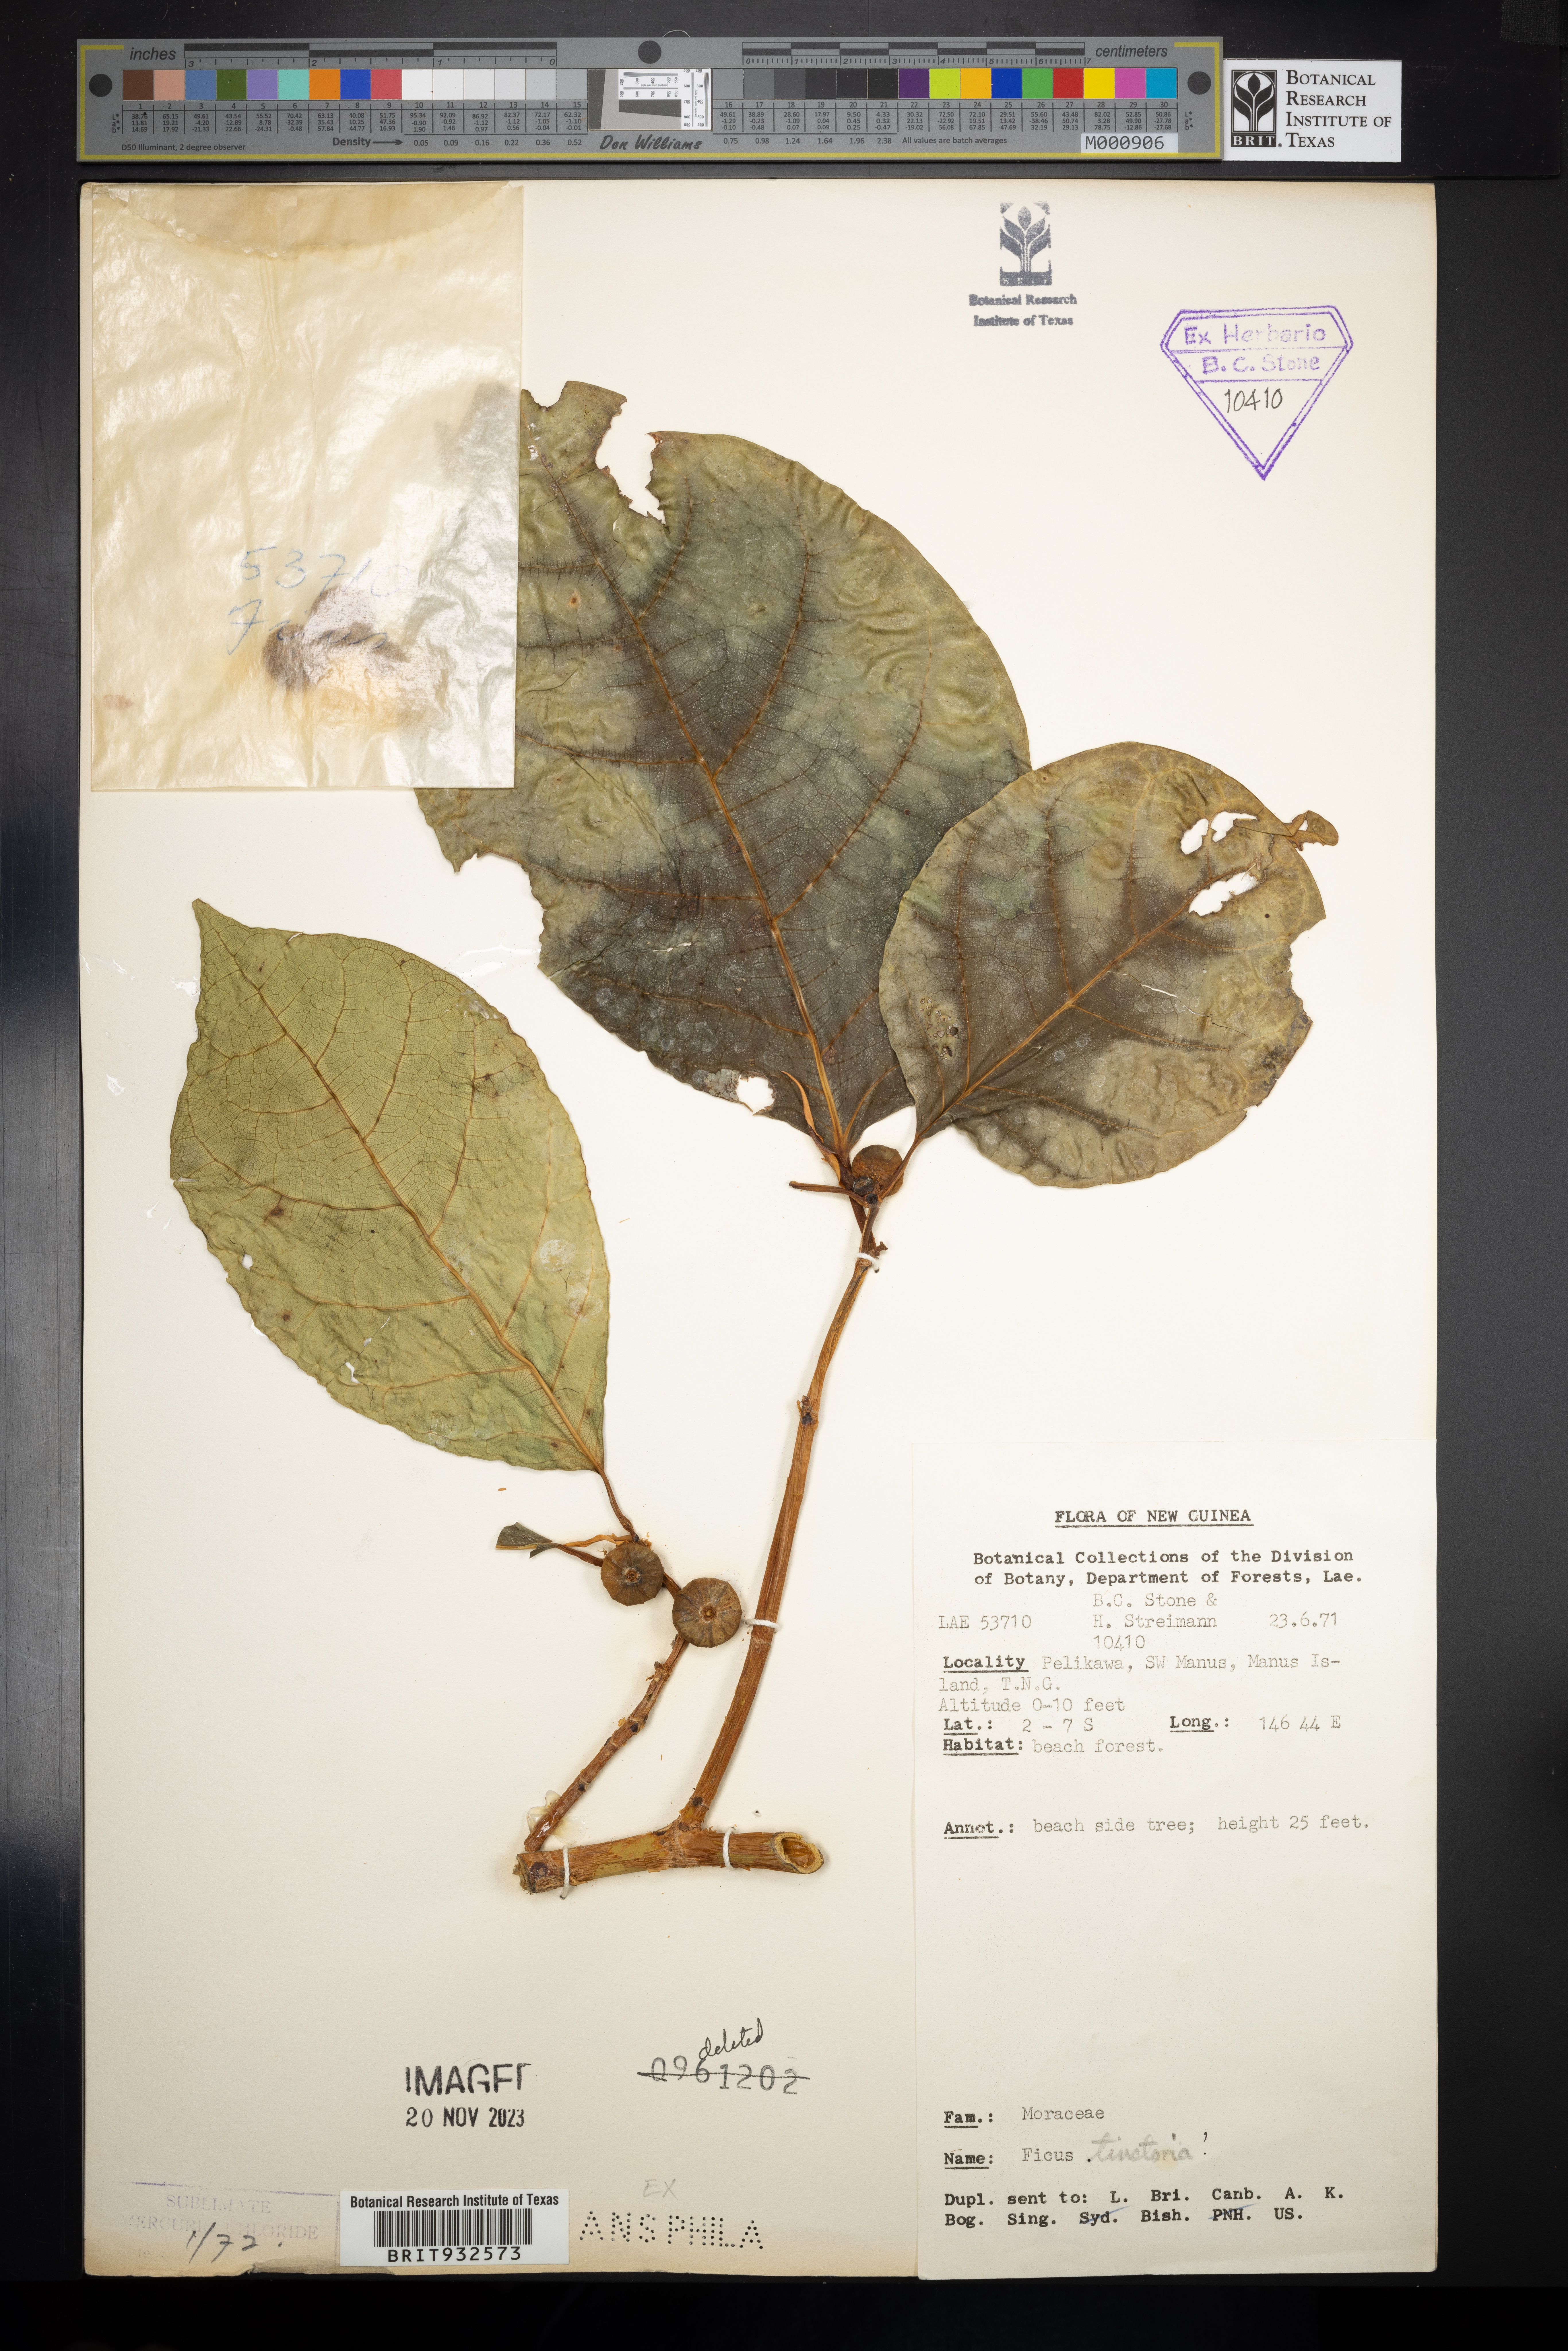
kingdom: Plantae
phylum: Tracheophyta
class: Magnoliopsida
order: Rosales
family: Moraceae
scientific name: Moraceae
